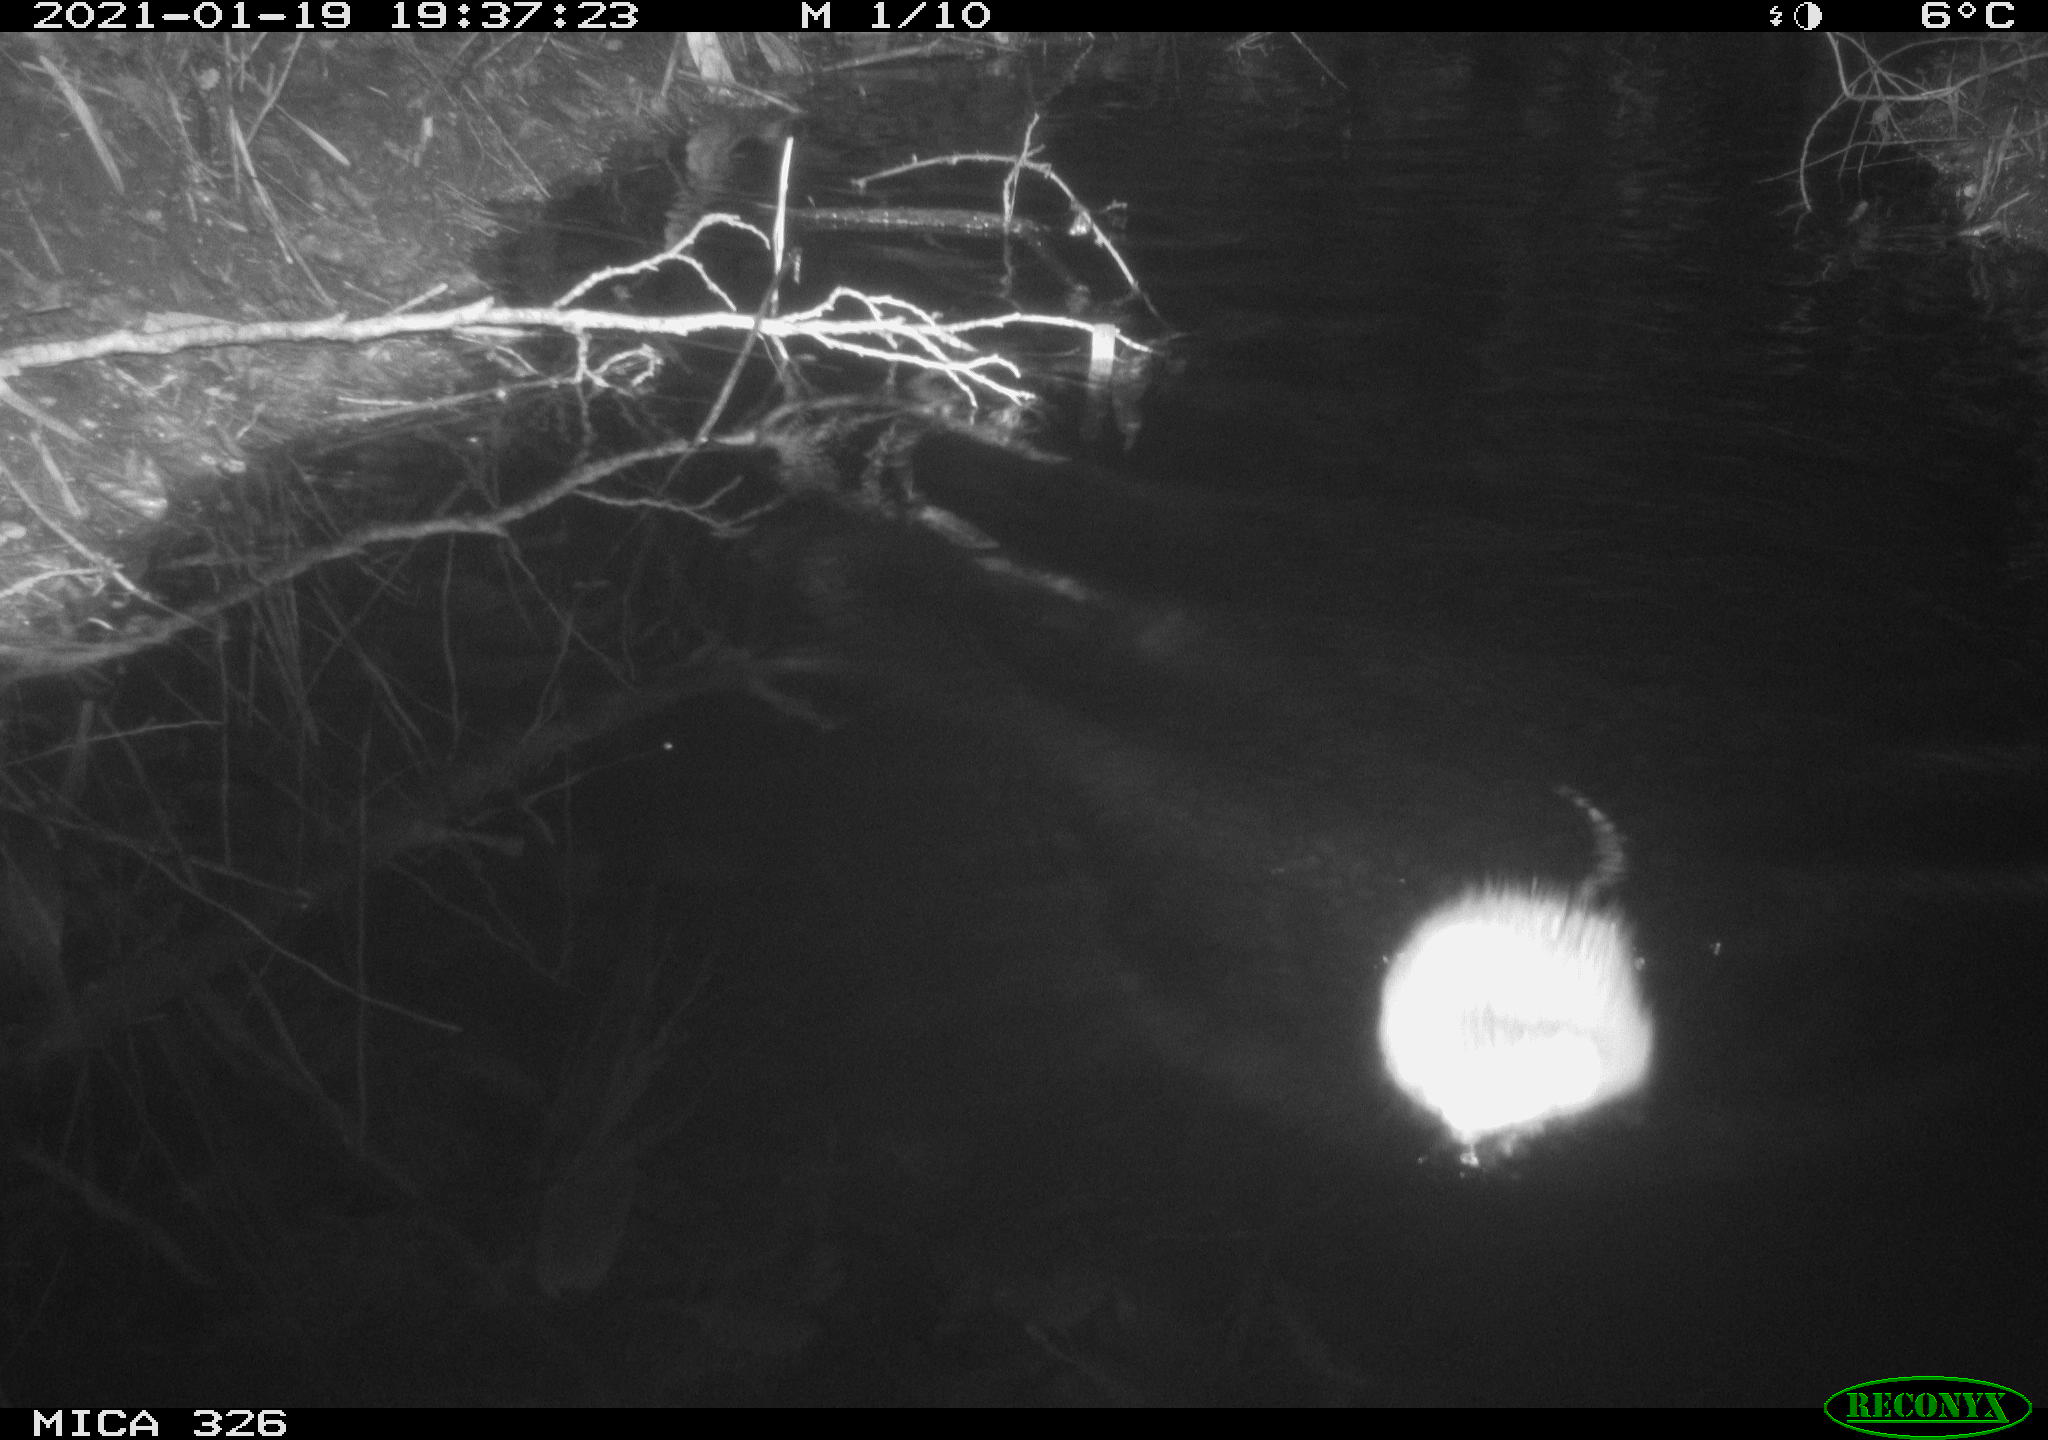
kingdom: Animalia
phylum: Chordata
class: Mammalia
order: Rodentia
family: Cricetidae
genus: Ondatra
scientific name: Ondatra zibethicus
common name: Muskrat
